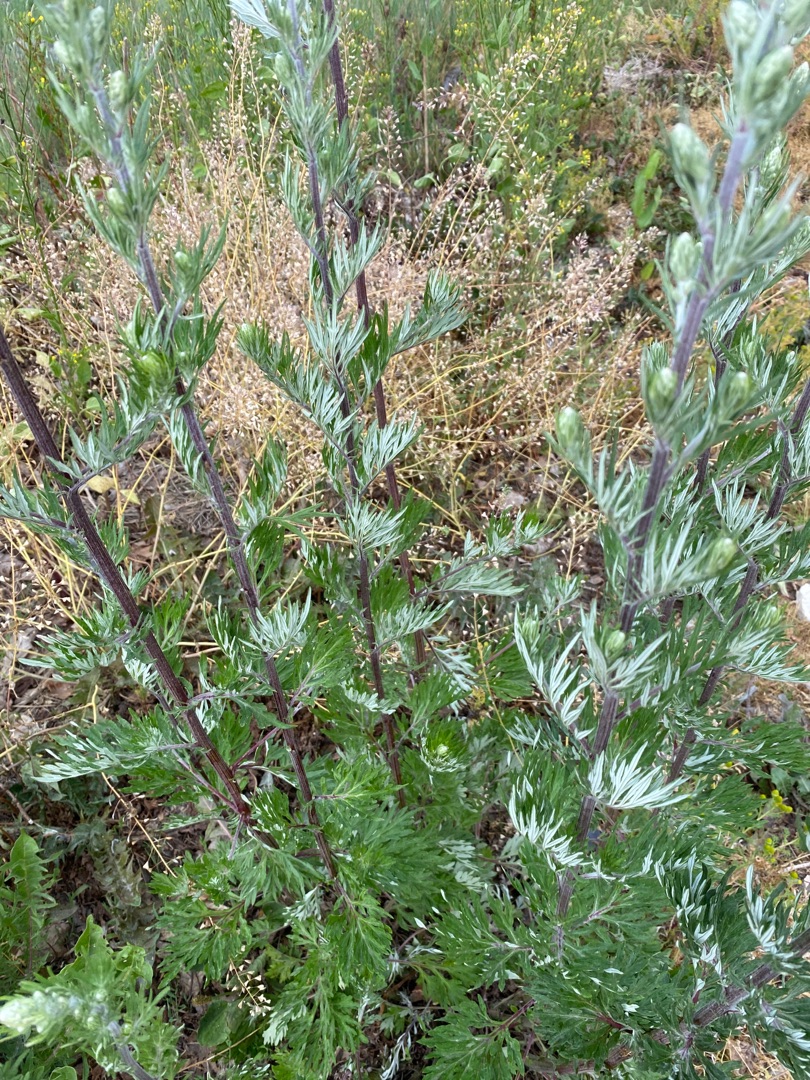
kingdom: Plantae
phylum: Tracheophyta
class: Magnoliopsida
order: Asterales
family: Asteraceae
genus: Artemisia
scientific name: Artemisia vulgaris
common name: Grå-bynke
